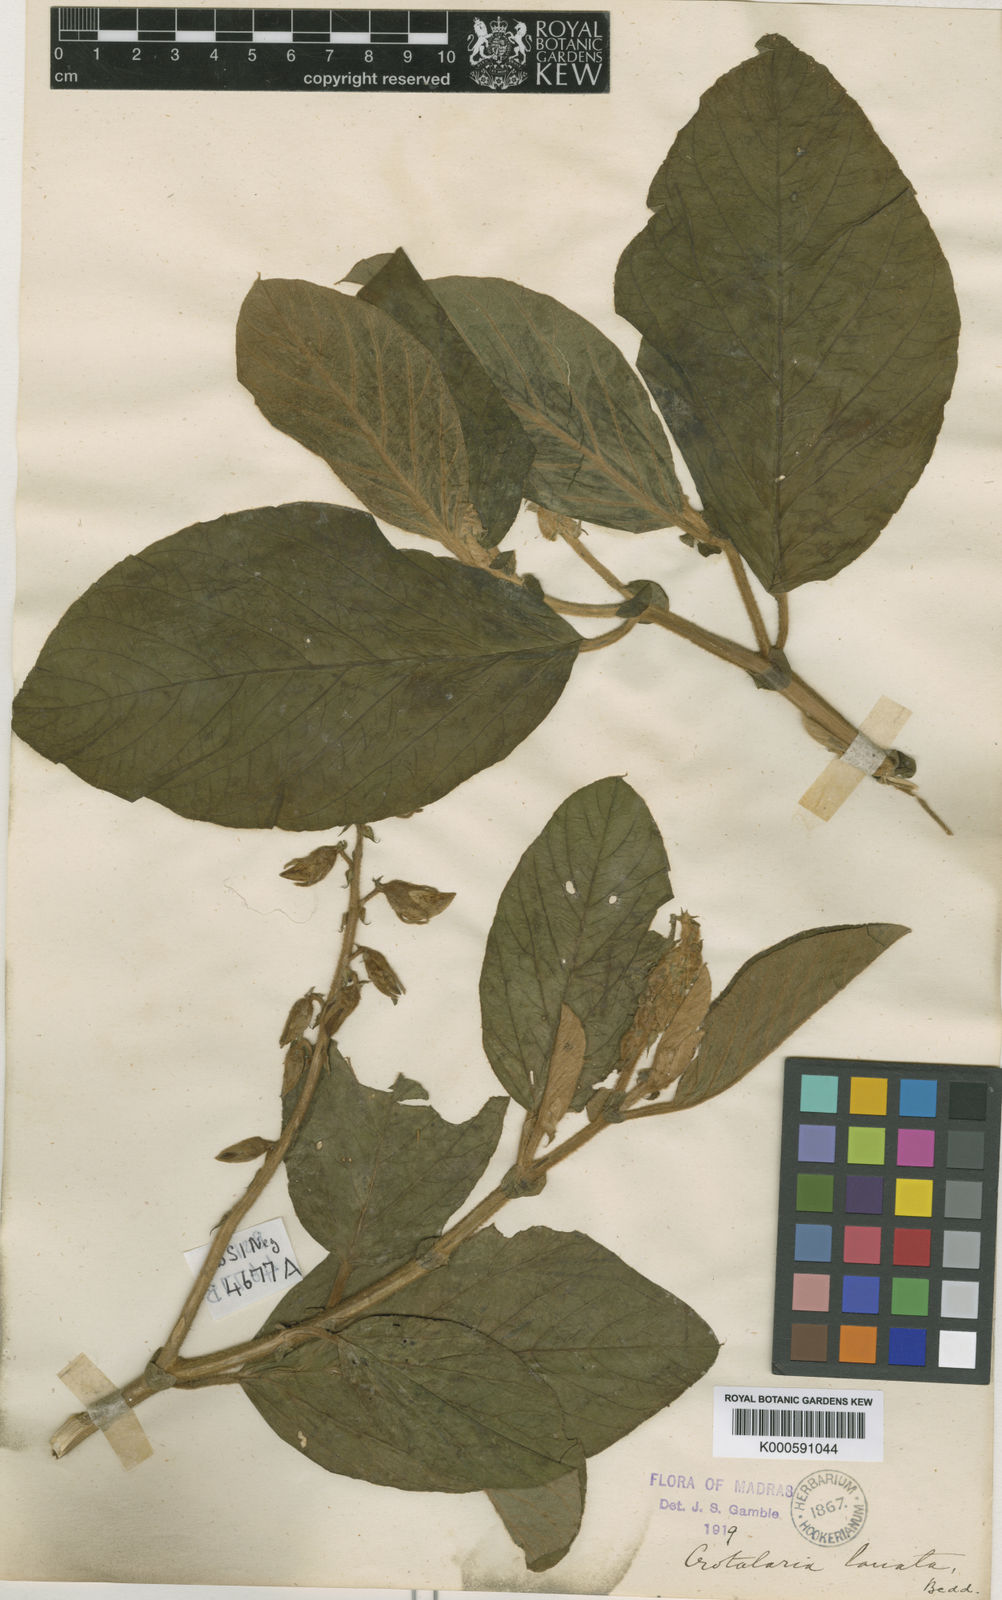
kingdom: Plantae
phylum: Tracheophyta
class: Magnoliopsida
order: Fabales
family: Fabaceae
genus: Crotalaria
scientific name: Crotalaria beddomeana
